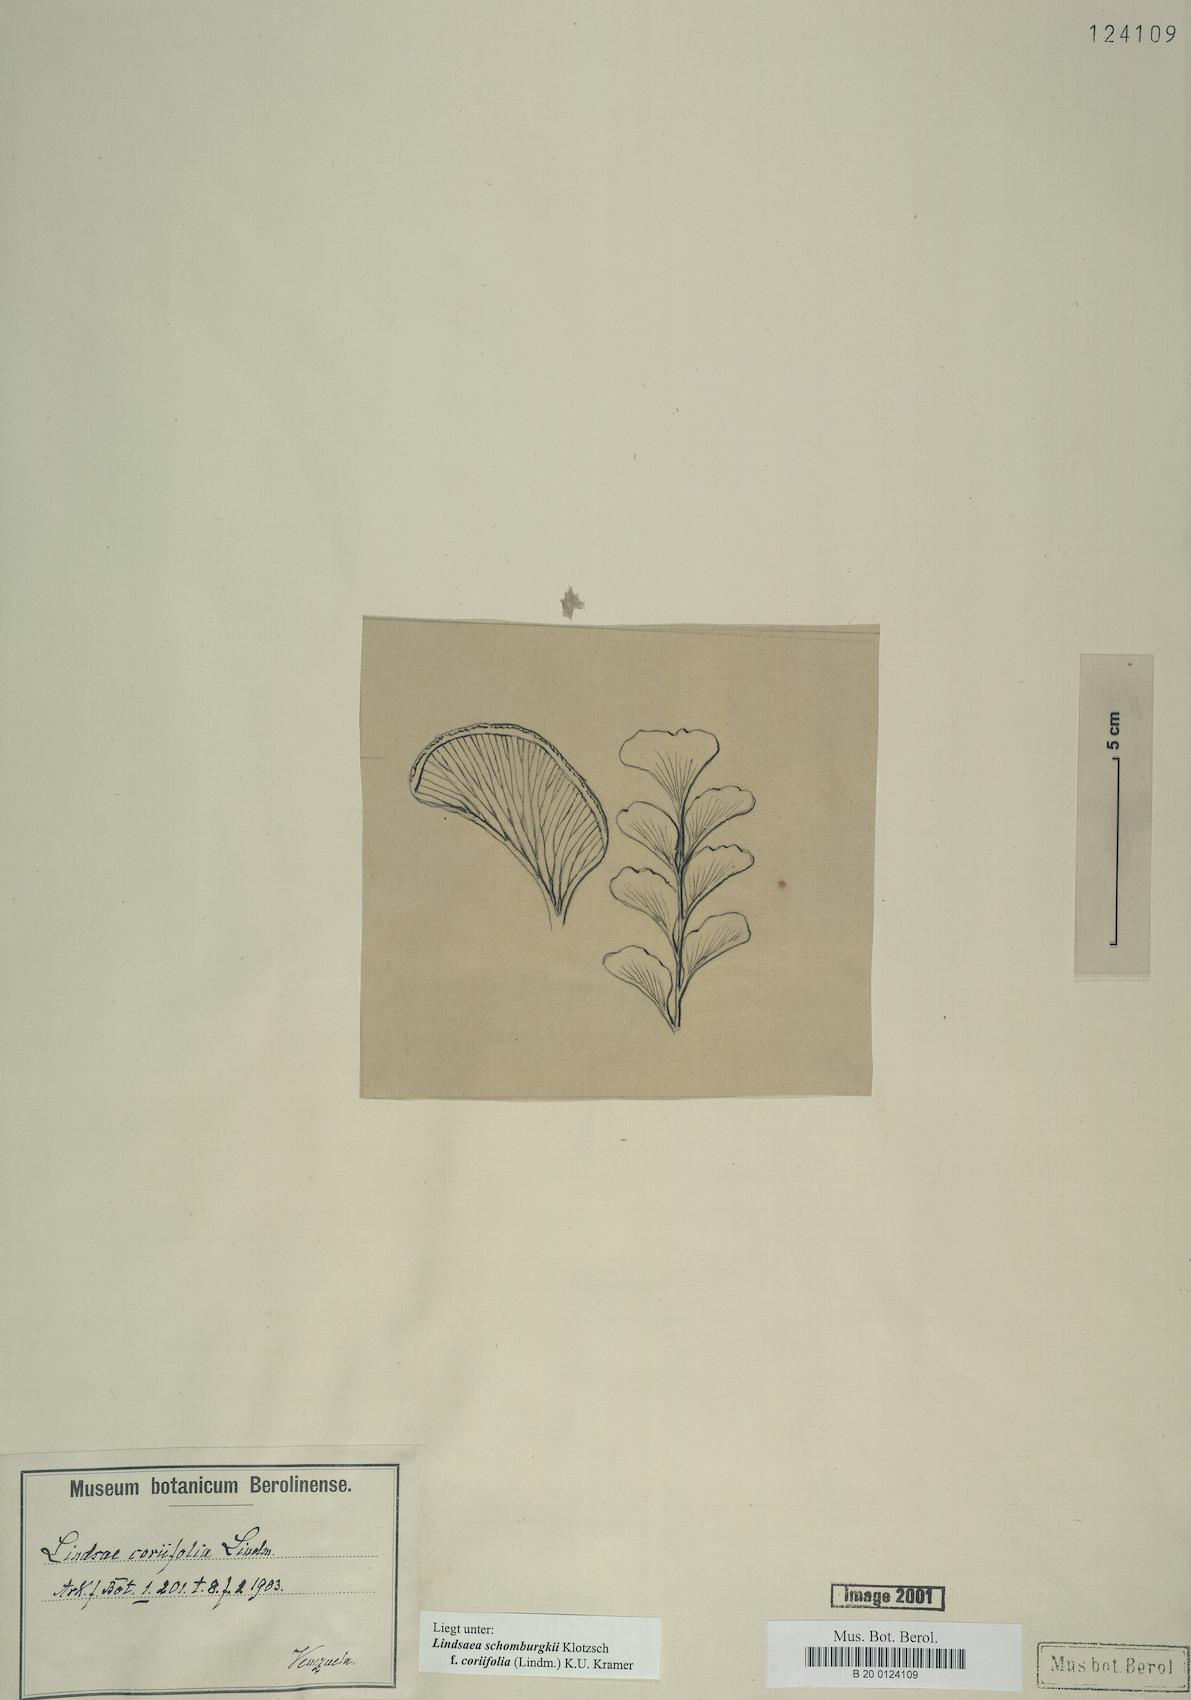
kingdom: Plantae
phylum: Tracheophyta
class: Polypodiopsida
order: Polypodiales
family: Lindsaeaceae
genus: Lindsaea
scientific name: Lindsaea schomburgkii
